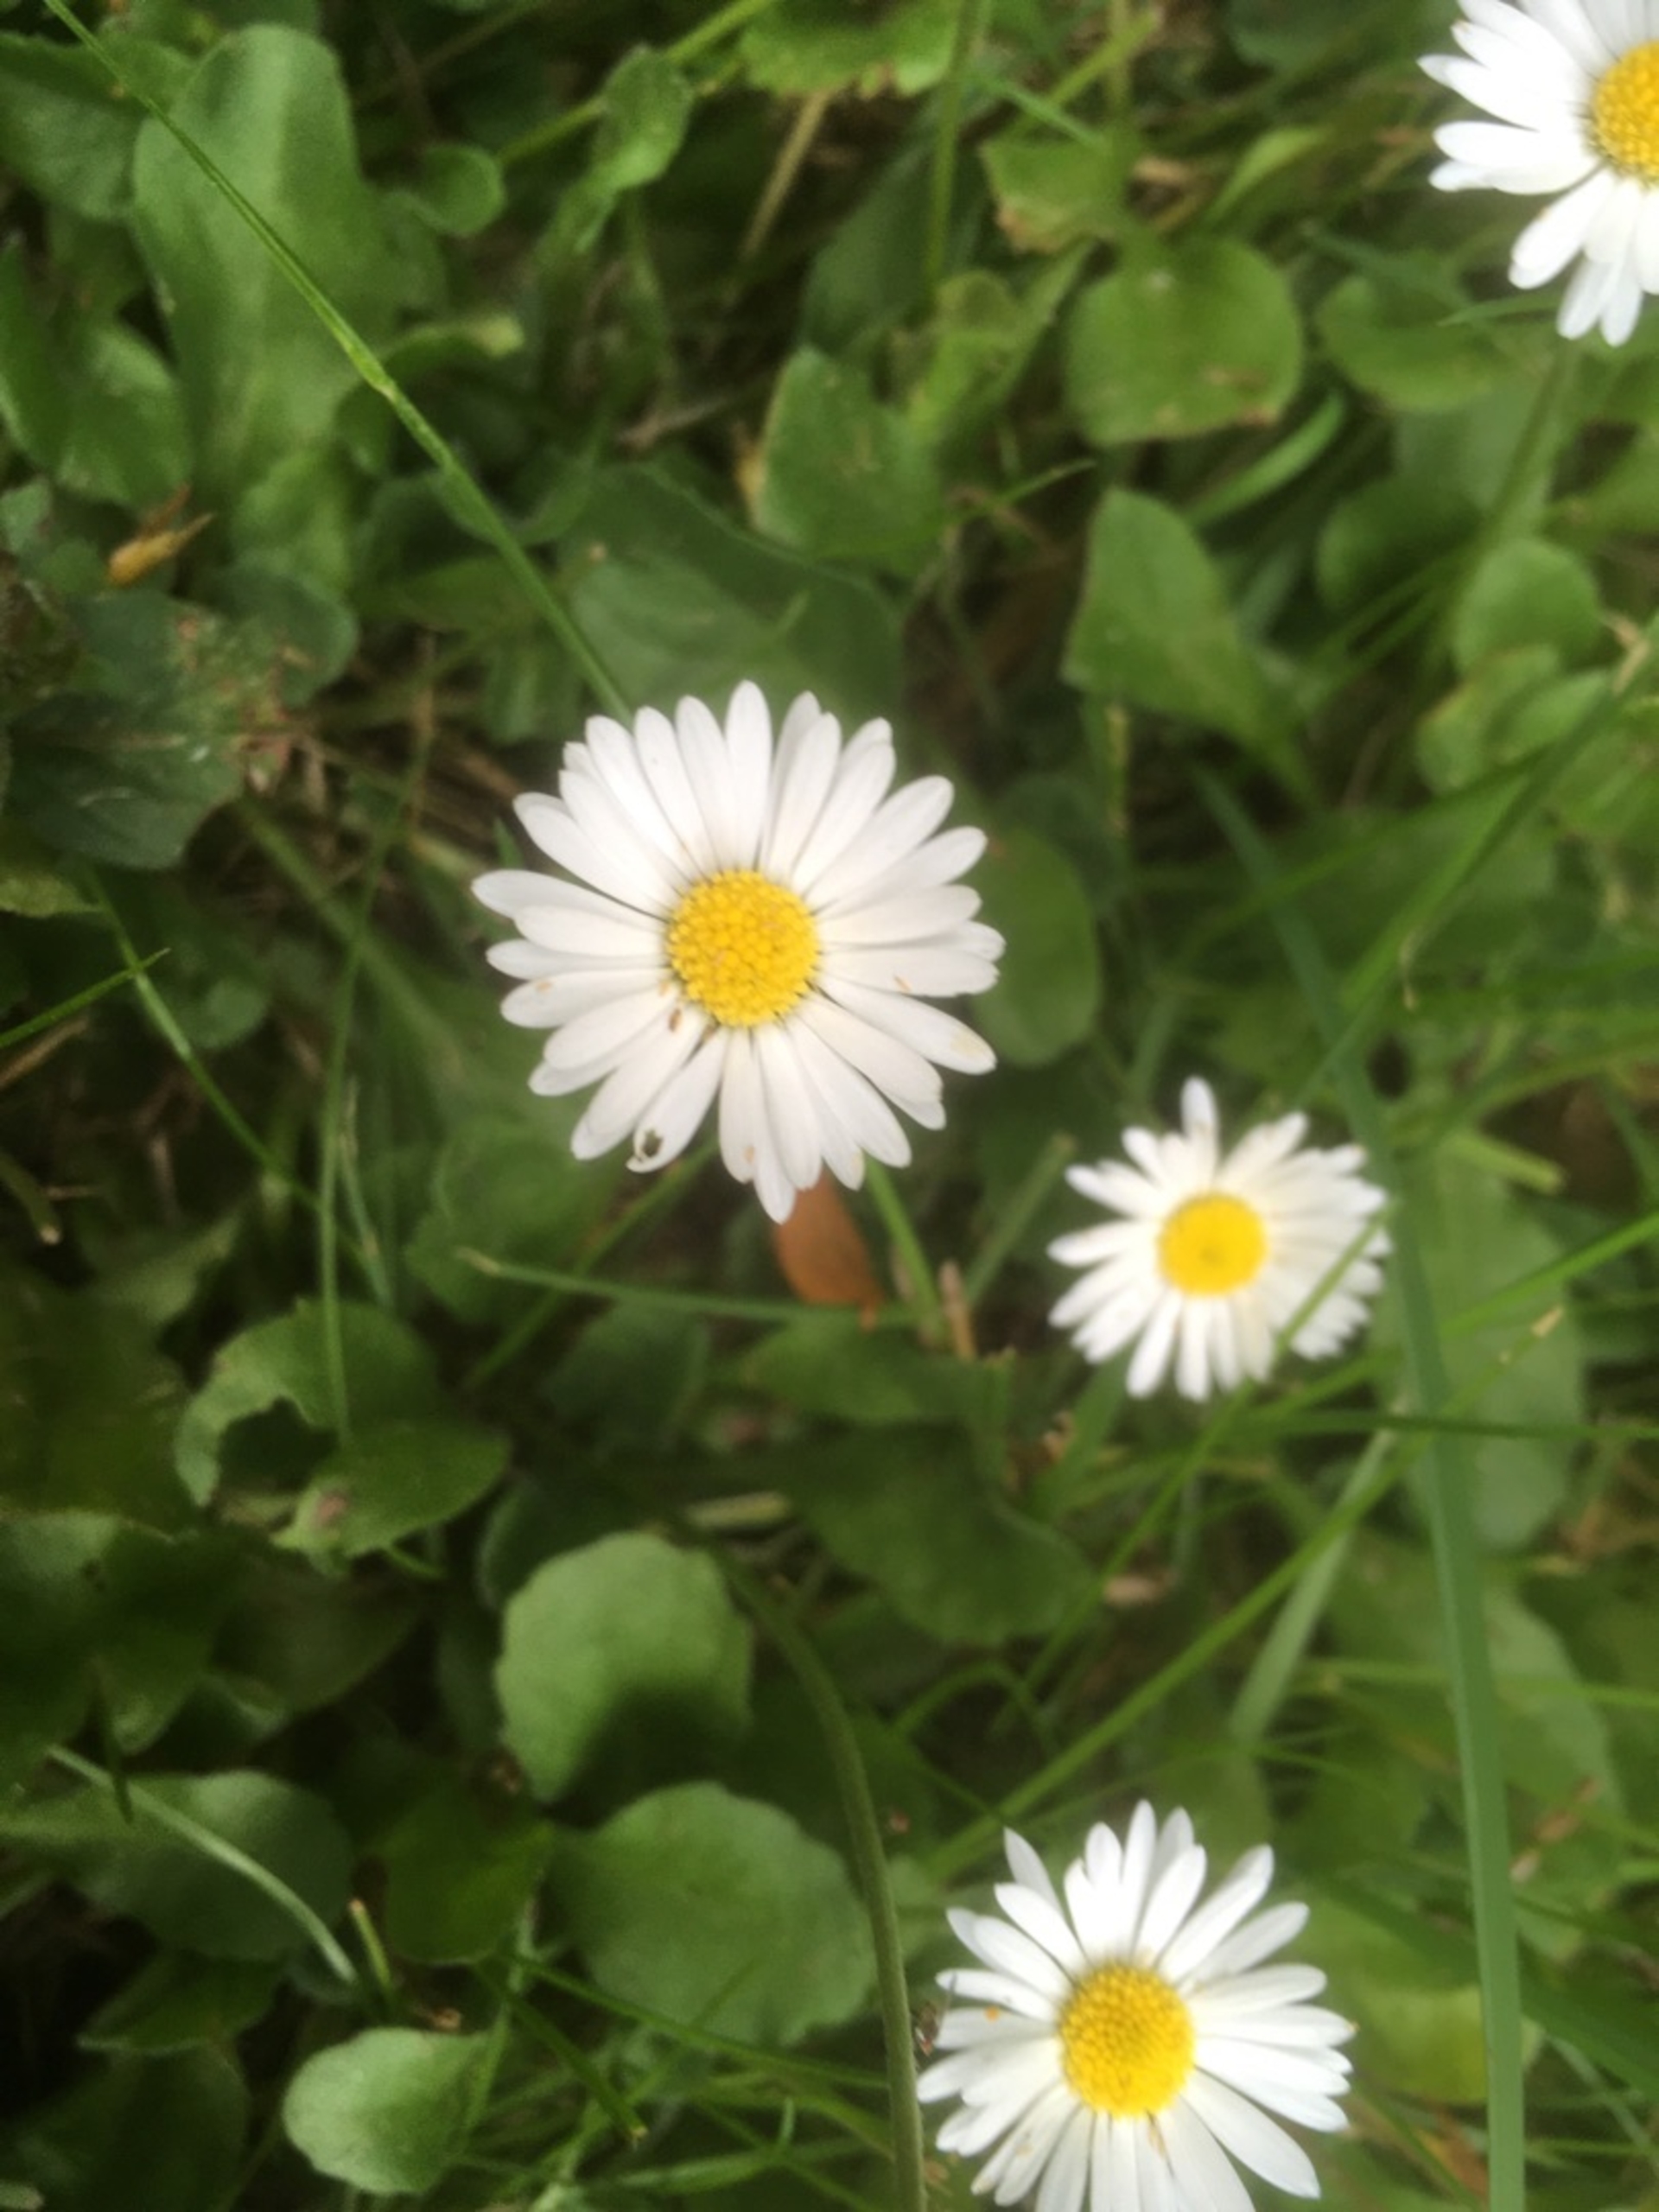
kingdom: Plantae
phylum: Tracheophyta
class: Magnoliopsida
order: Asterales
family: Asteraceae
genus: Bellis
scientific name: Bellis perennis
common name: Tusindfryd
